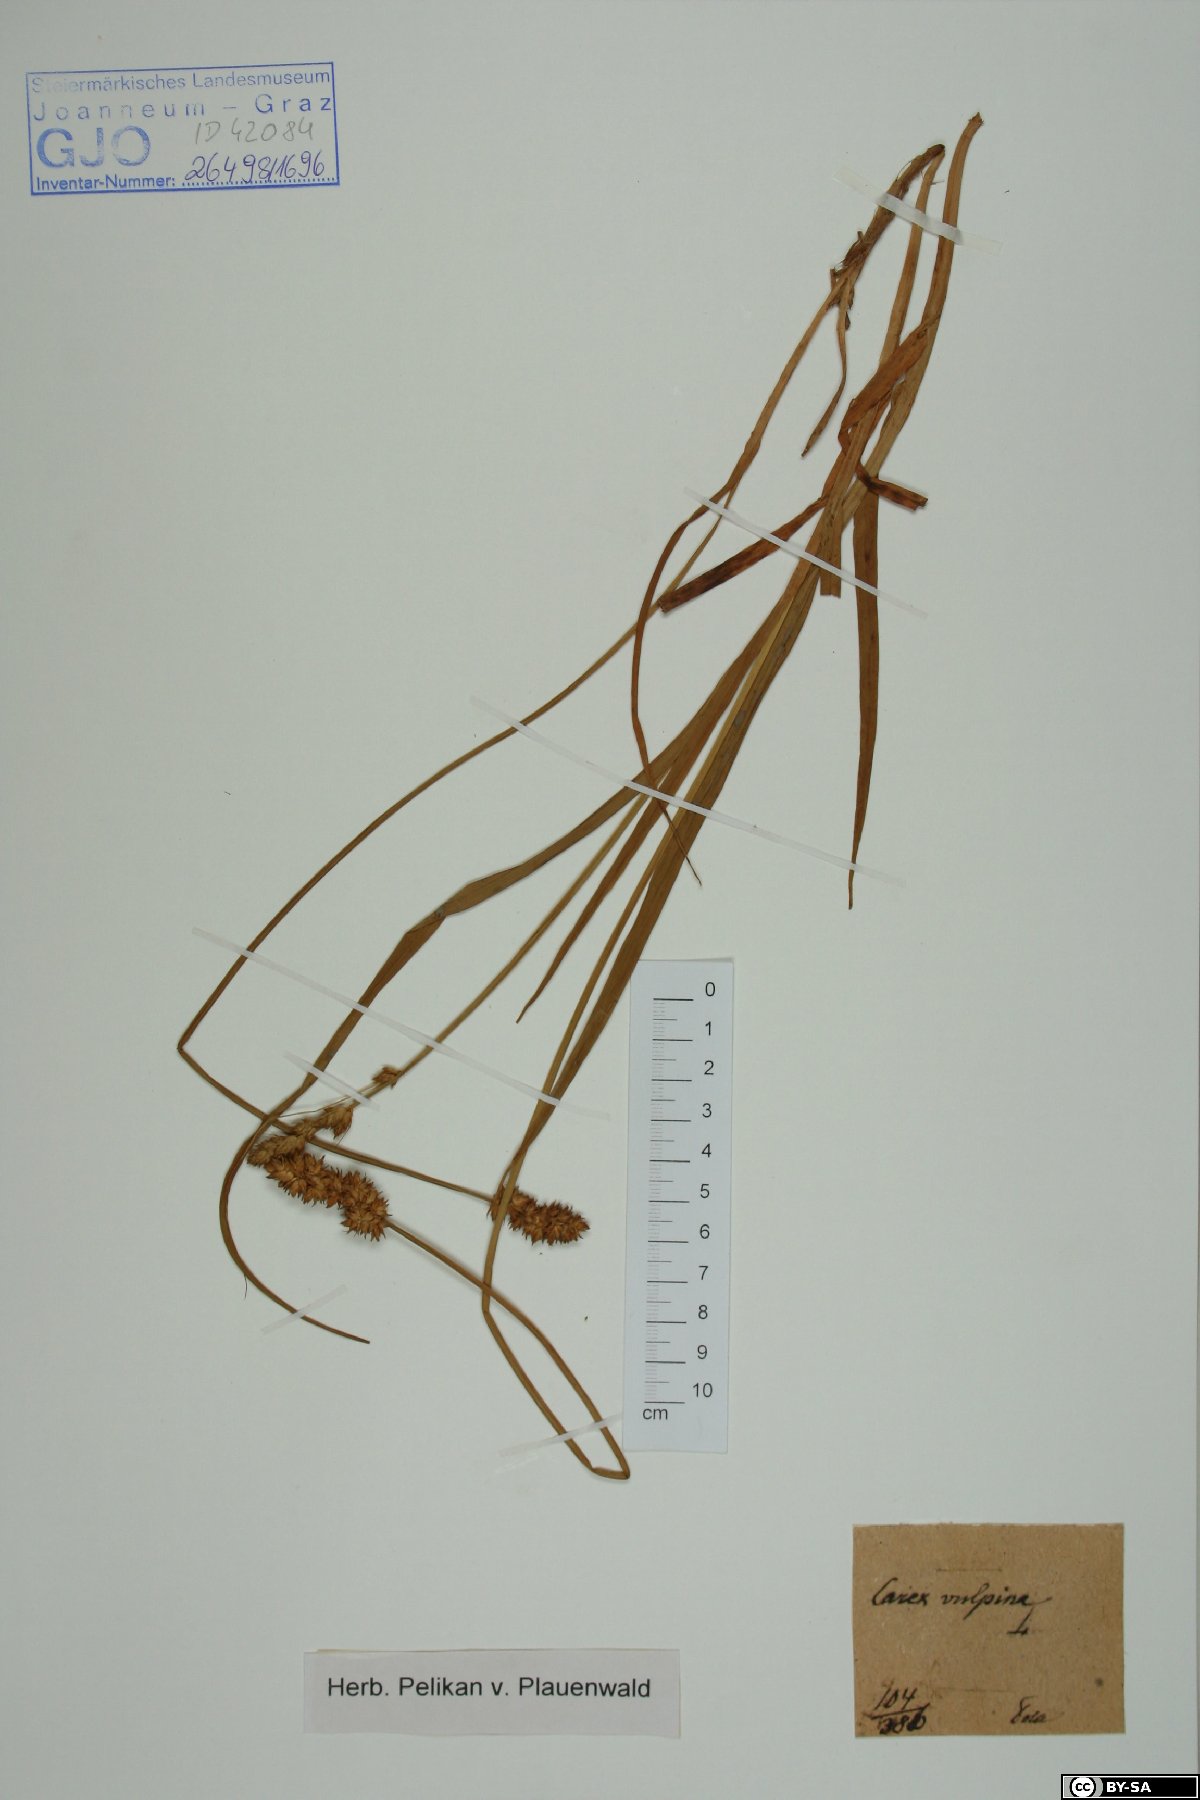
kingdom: Plantae
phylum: Tracheophyta
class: Liliopsida
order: Poales
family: Cyperaceae
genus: Carex
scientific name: Carex vulpina
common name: True fox-sedge
